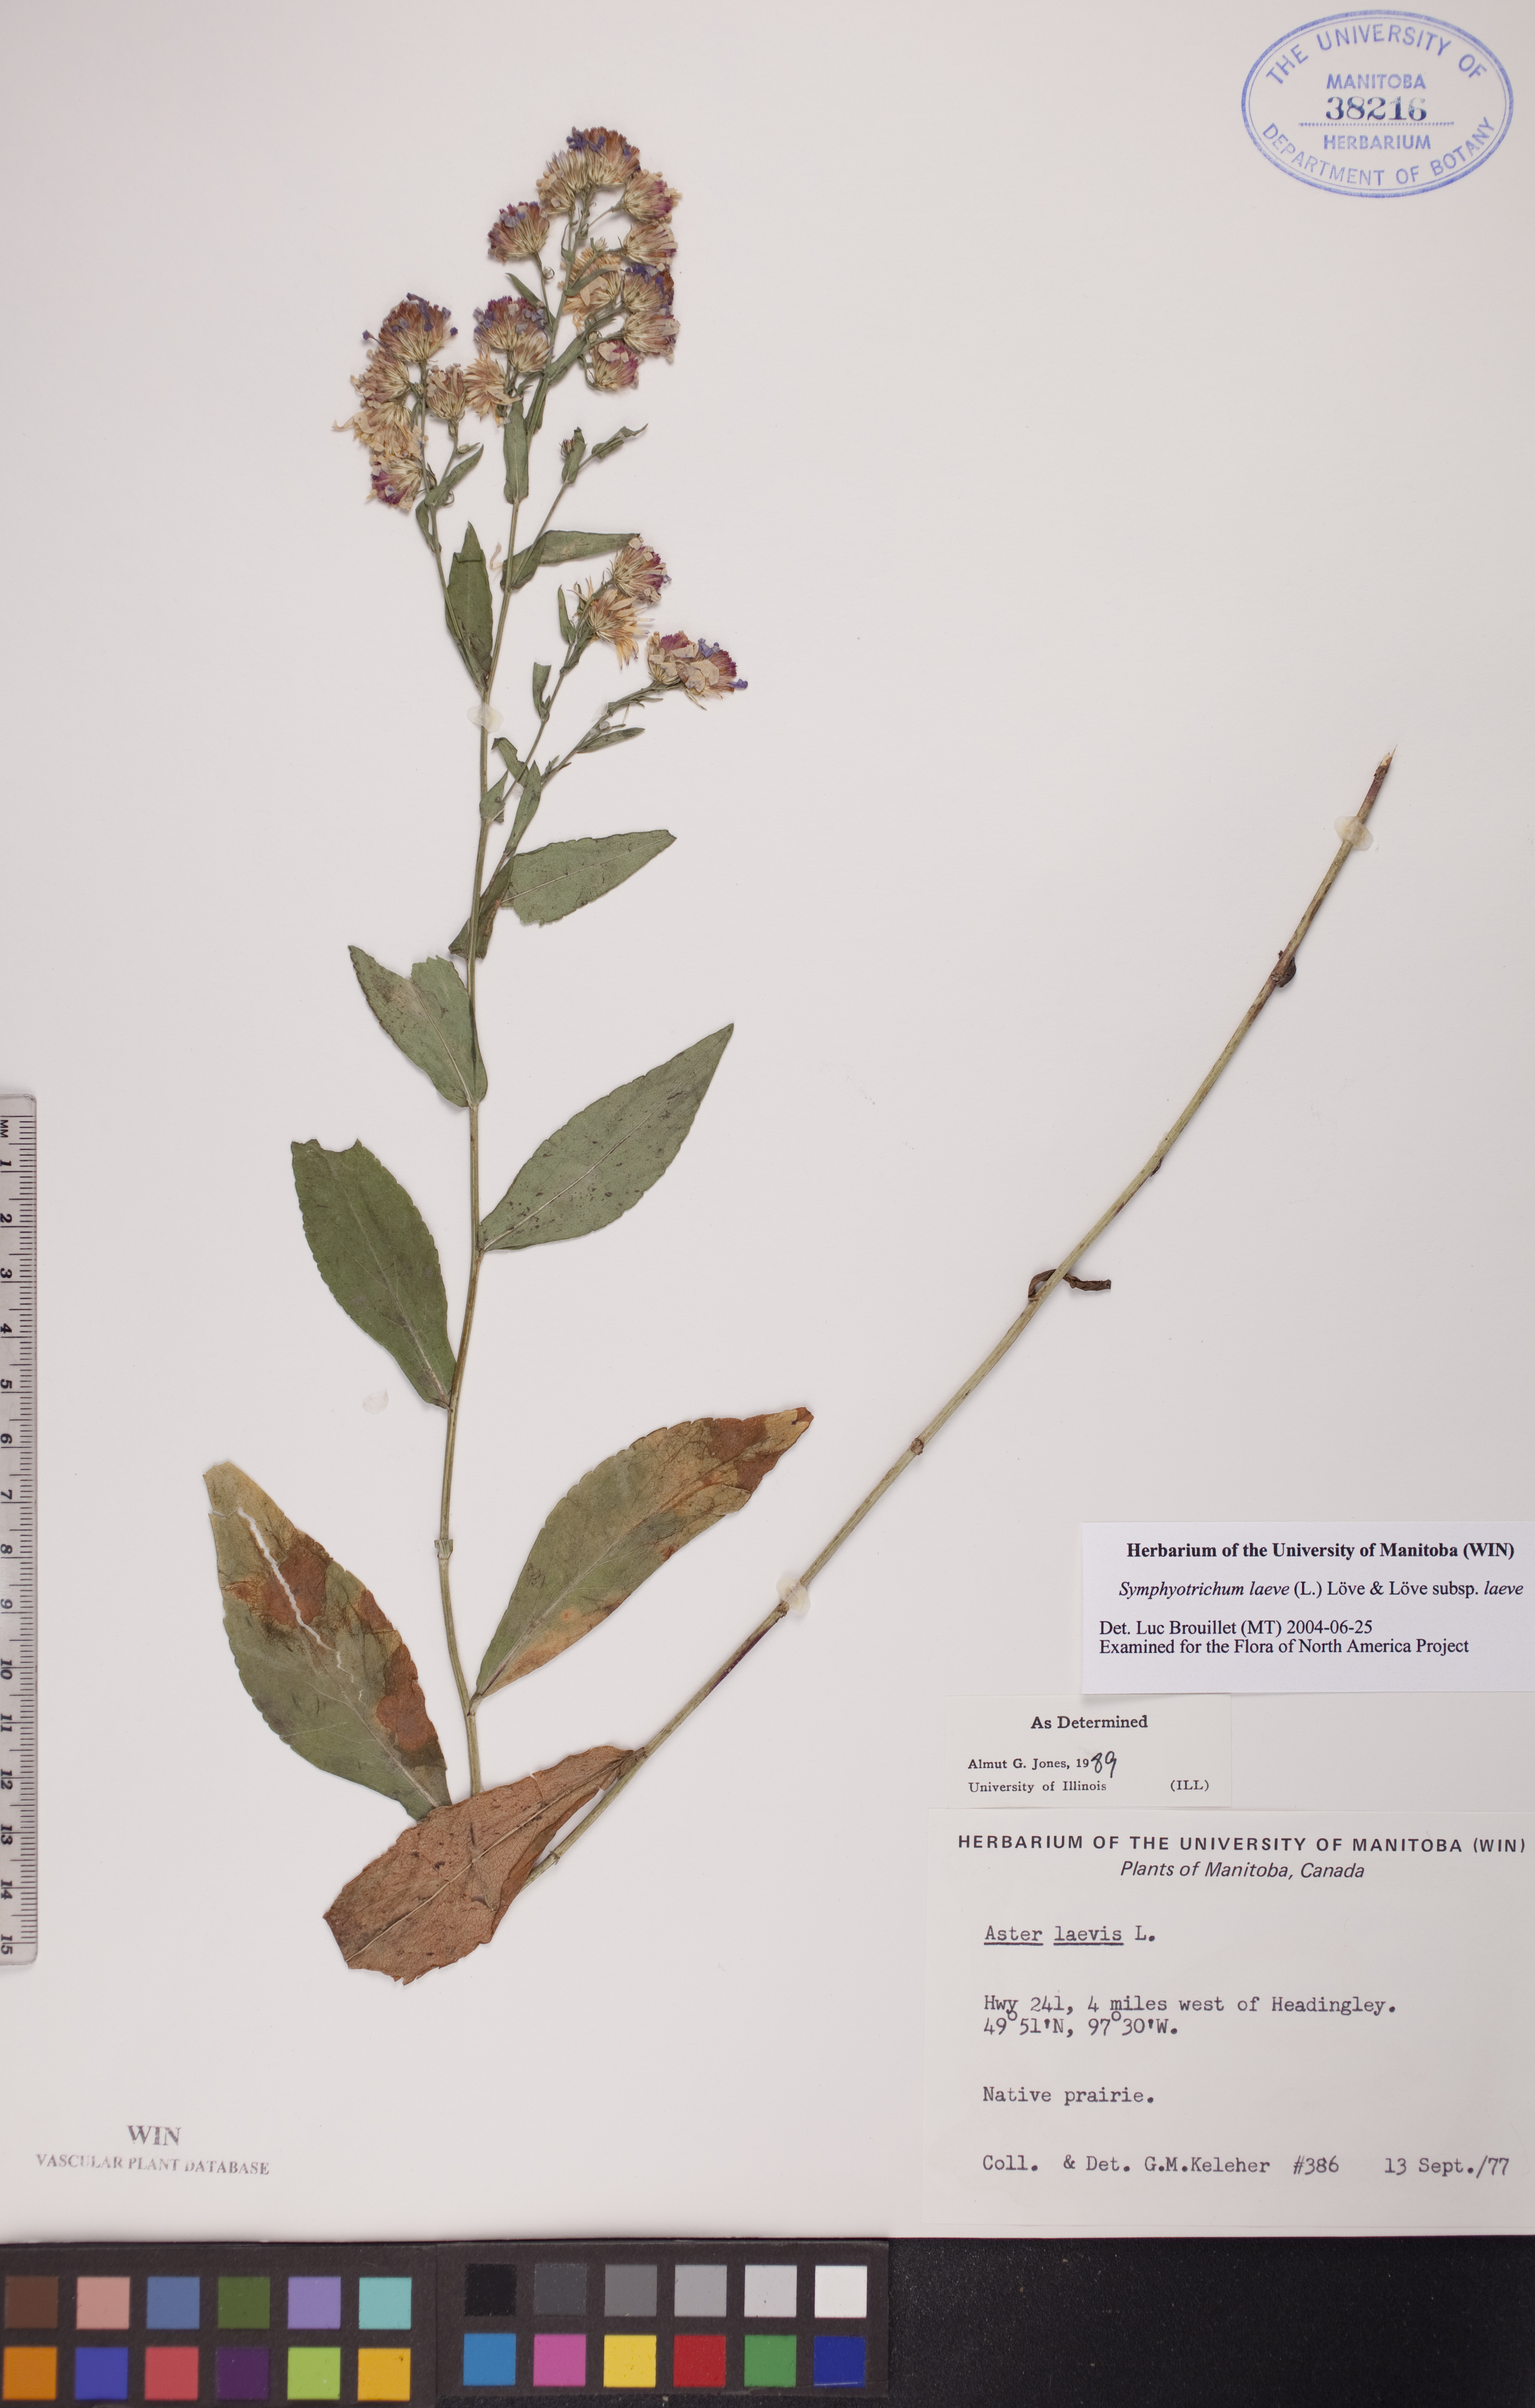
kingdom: Plantae
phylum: Tracheophyta
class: Magnoliopsida
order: Asterales
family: Asteraceae
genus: Symphyotrichum
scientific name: Symphyotrichum laeve
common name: Glaucous aster
